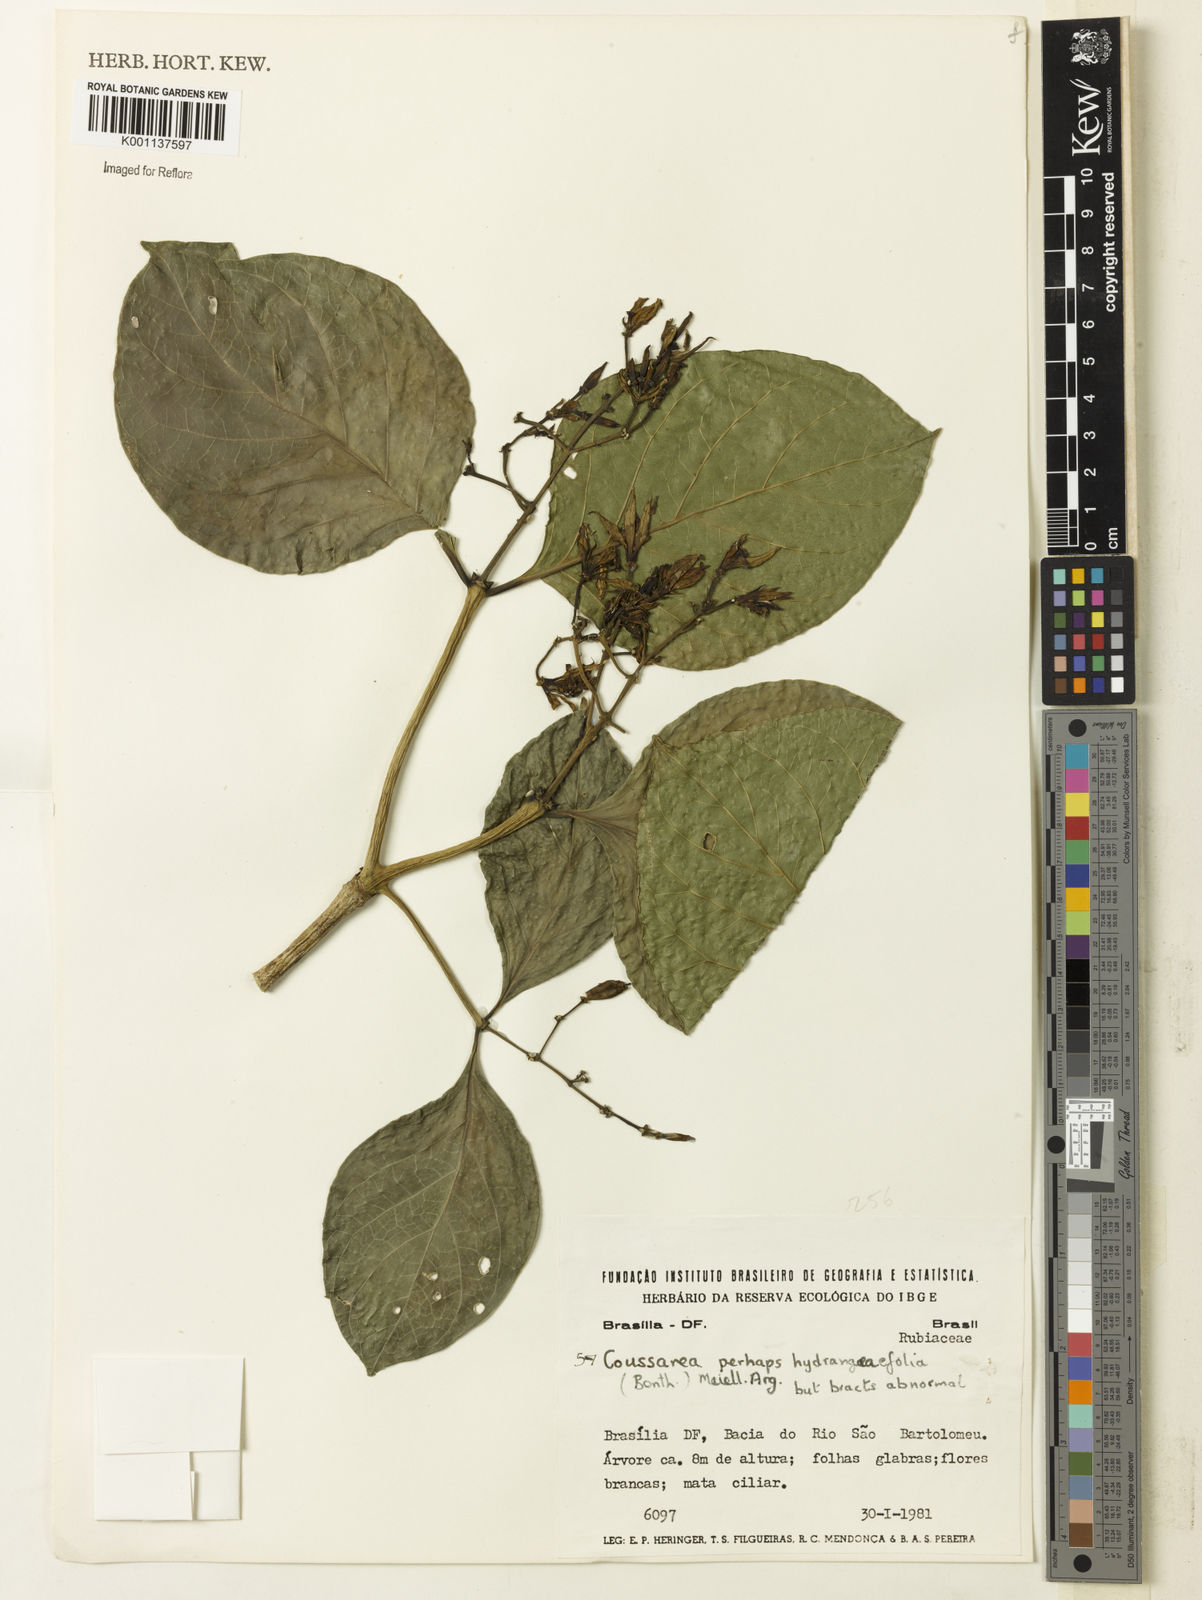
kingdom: Plantae
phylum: Tracheophyta
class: Magnoliopsida
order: Gentianales
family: Rubiaceae
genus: Coussarea
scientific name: Coussarea
